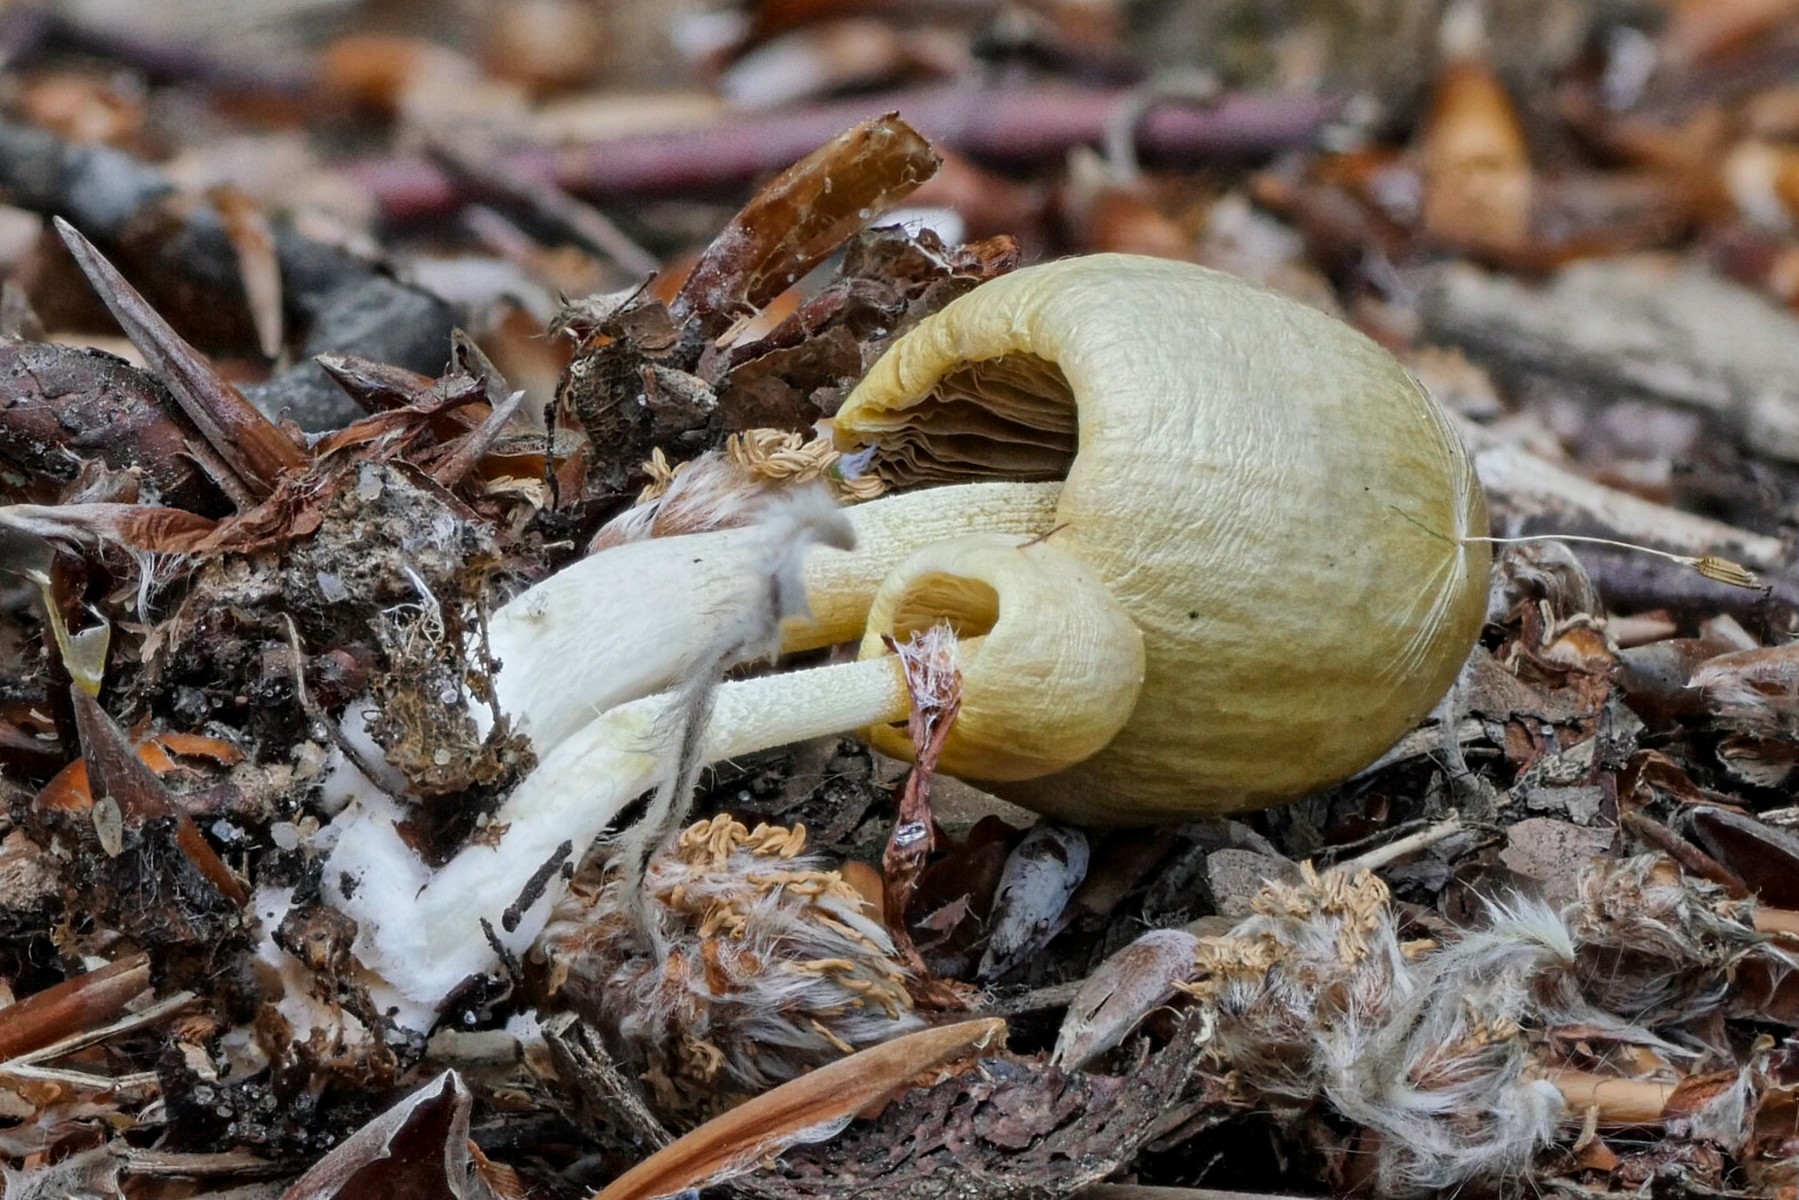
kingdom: Fungi
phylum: Basidiomycota
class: Agaricomycetes
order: Agaricales
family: Bolbitiaceae
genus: Bolbitius
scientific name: Bolbitius titubans
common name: almindelig gulhat
